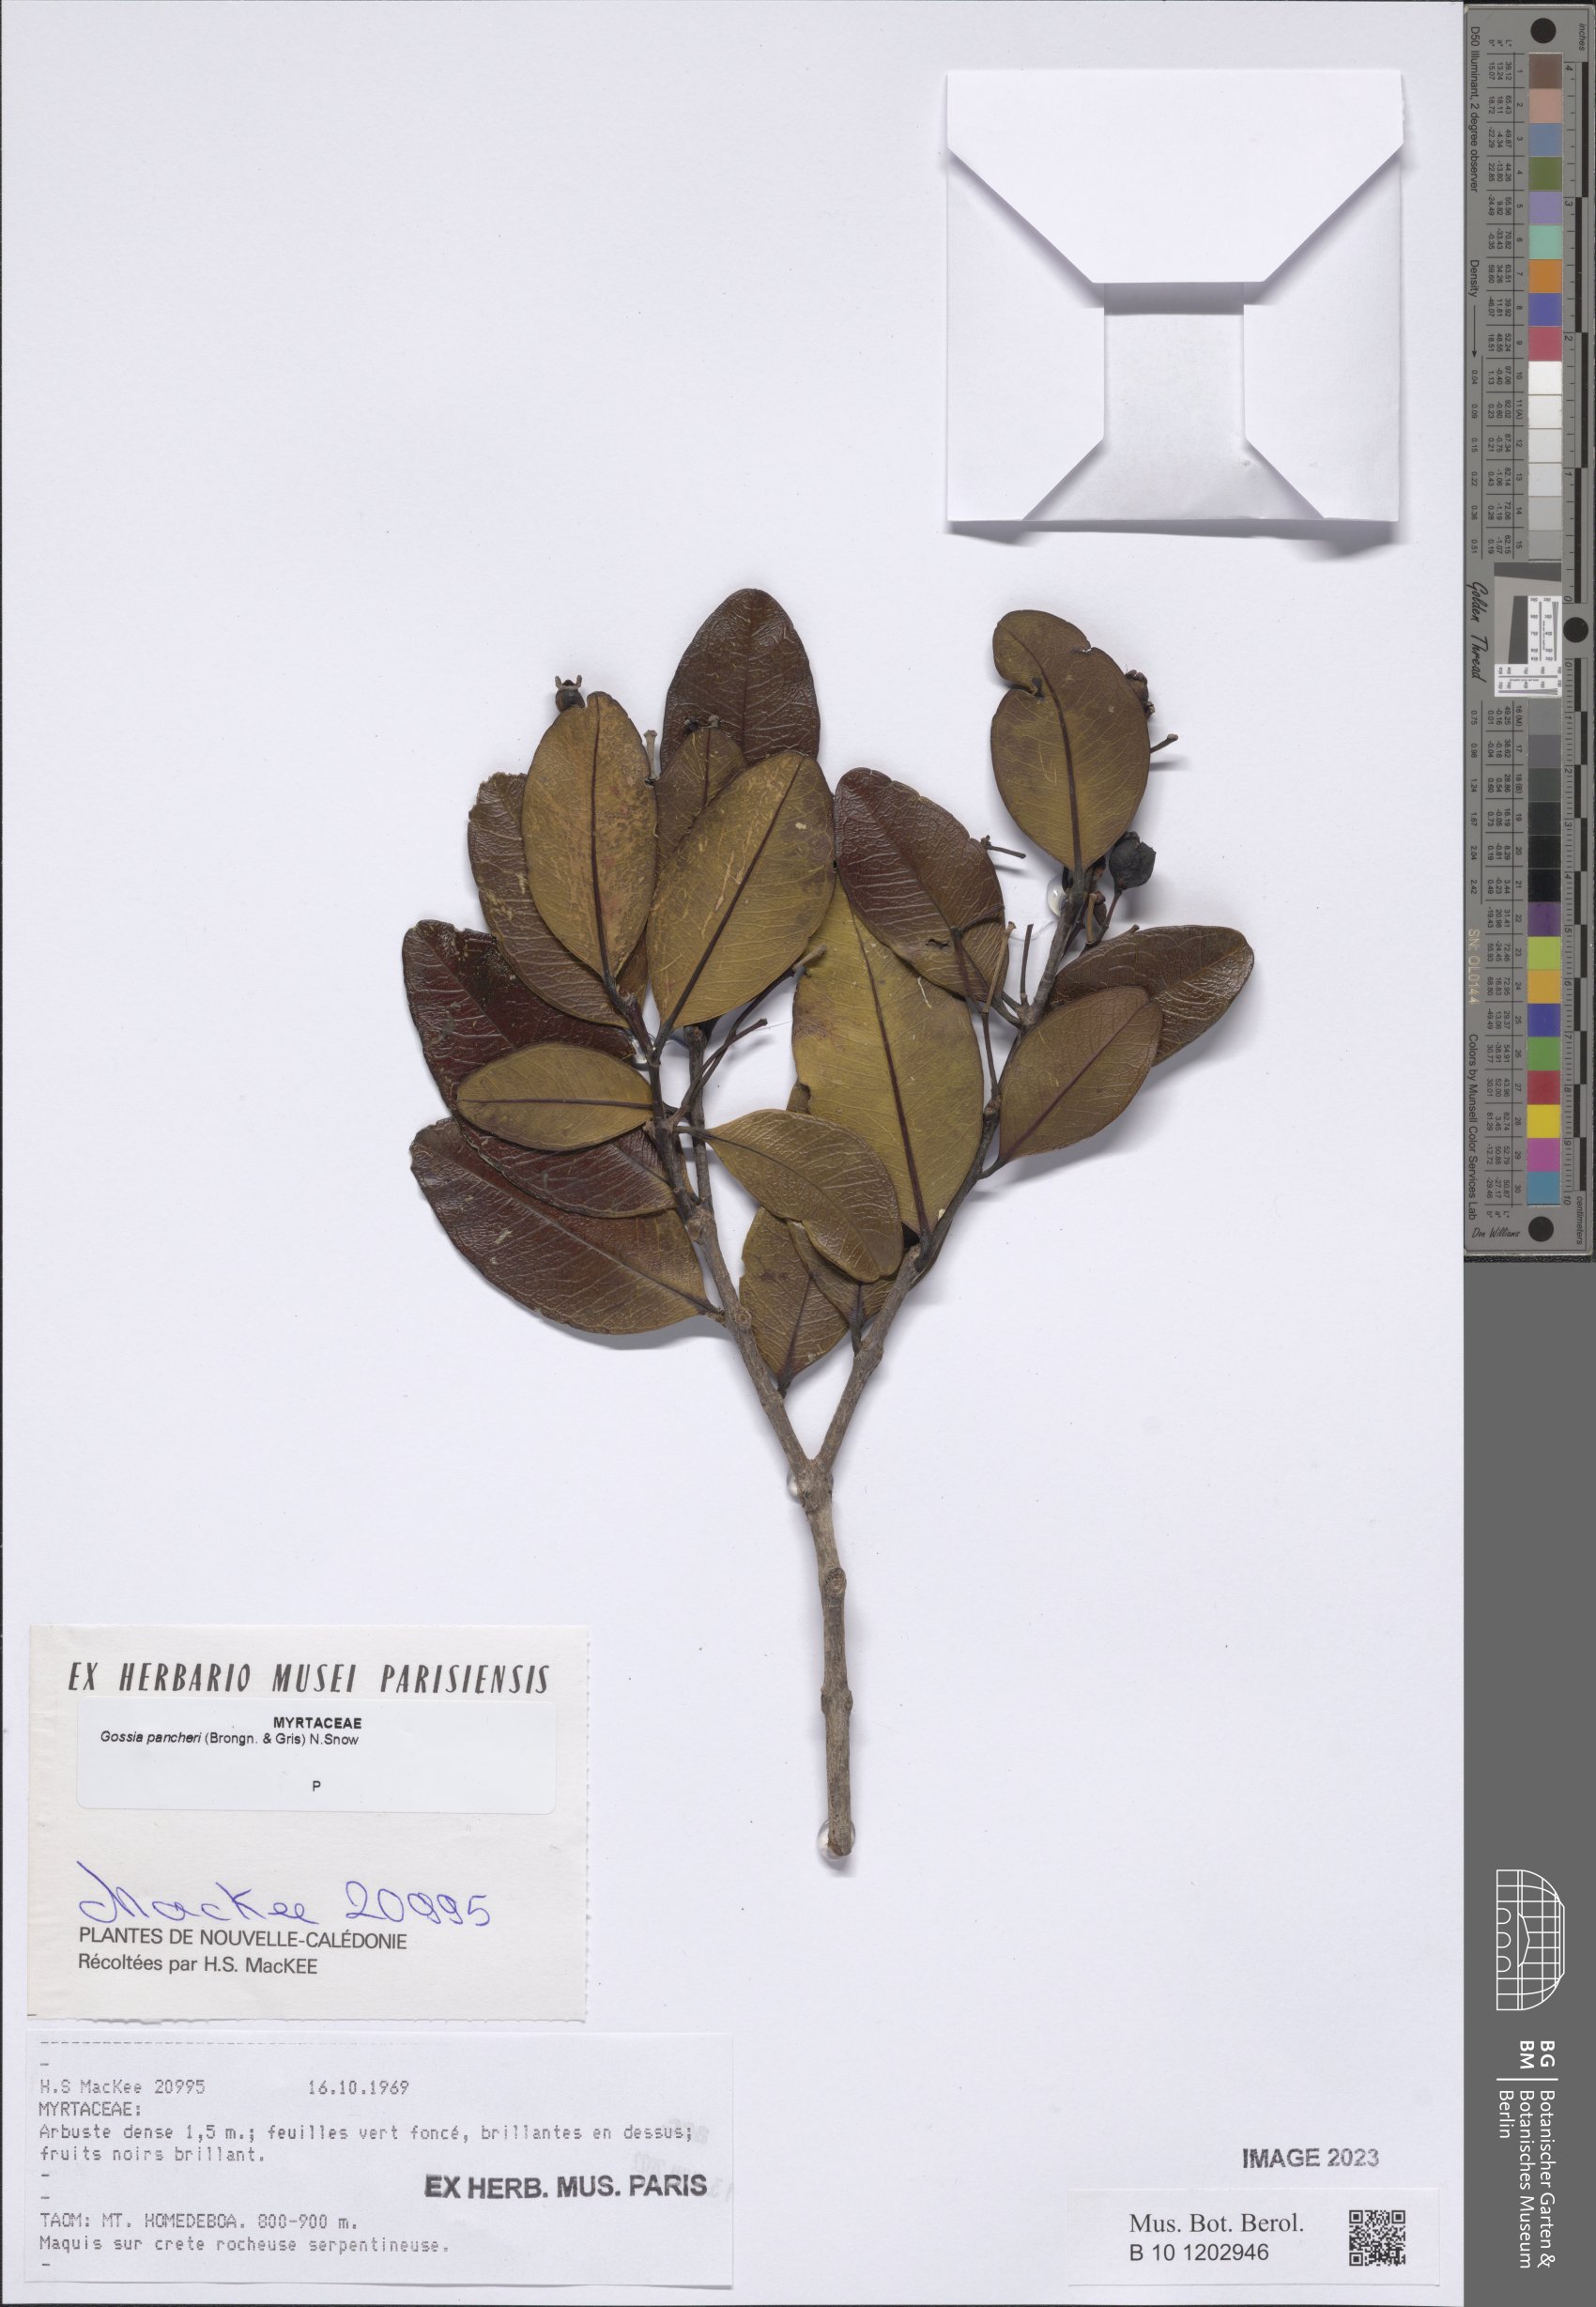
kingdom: Plantae
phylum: Tracheophyta
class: Magnoliopsida
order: Myrtales
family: Myrtaceae
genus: Gossia
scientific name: Gossia pancheri
